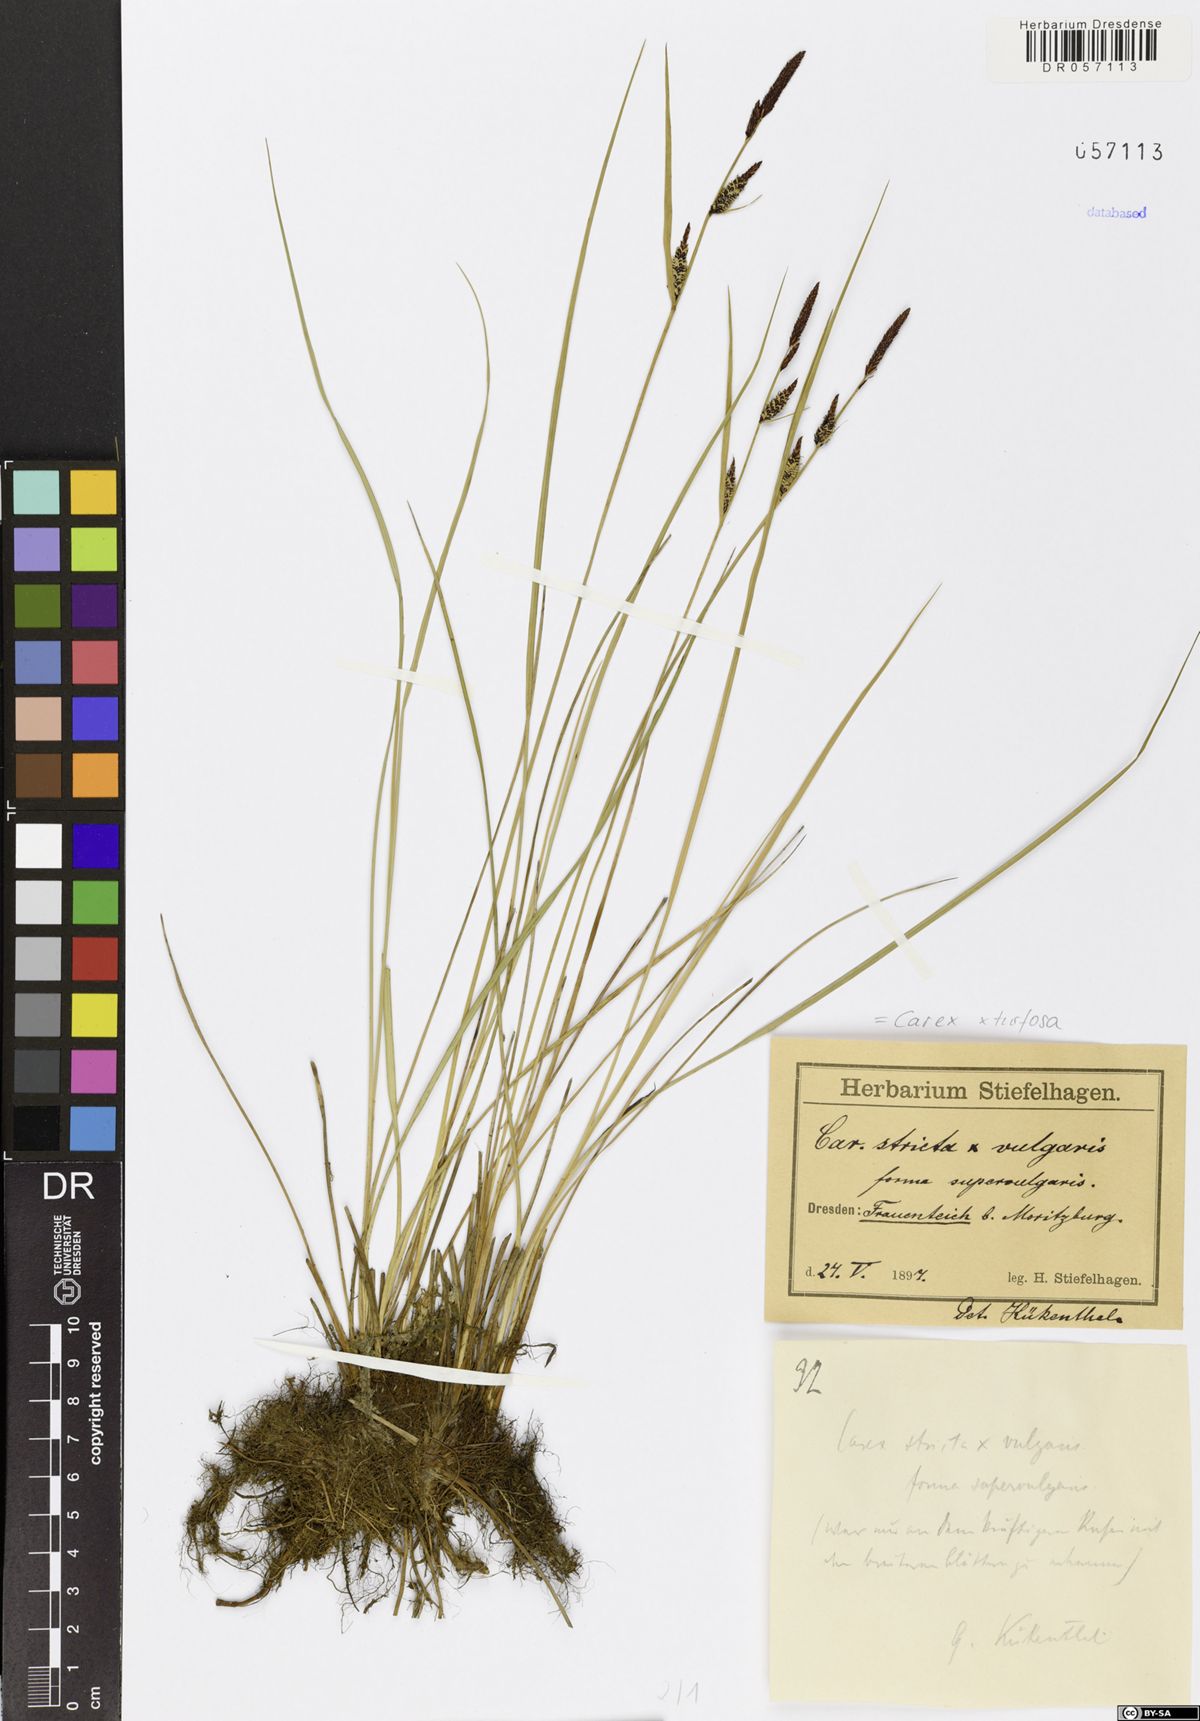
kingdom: Plantae
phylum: Tracheophyta
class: Liliopsida
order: Poales
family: Cyperaceae
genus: Carex
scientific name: Carex turfosa
